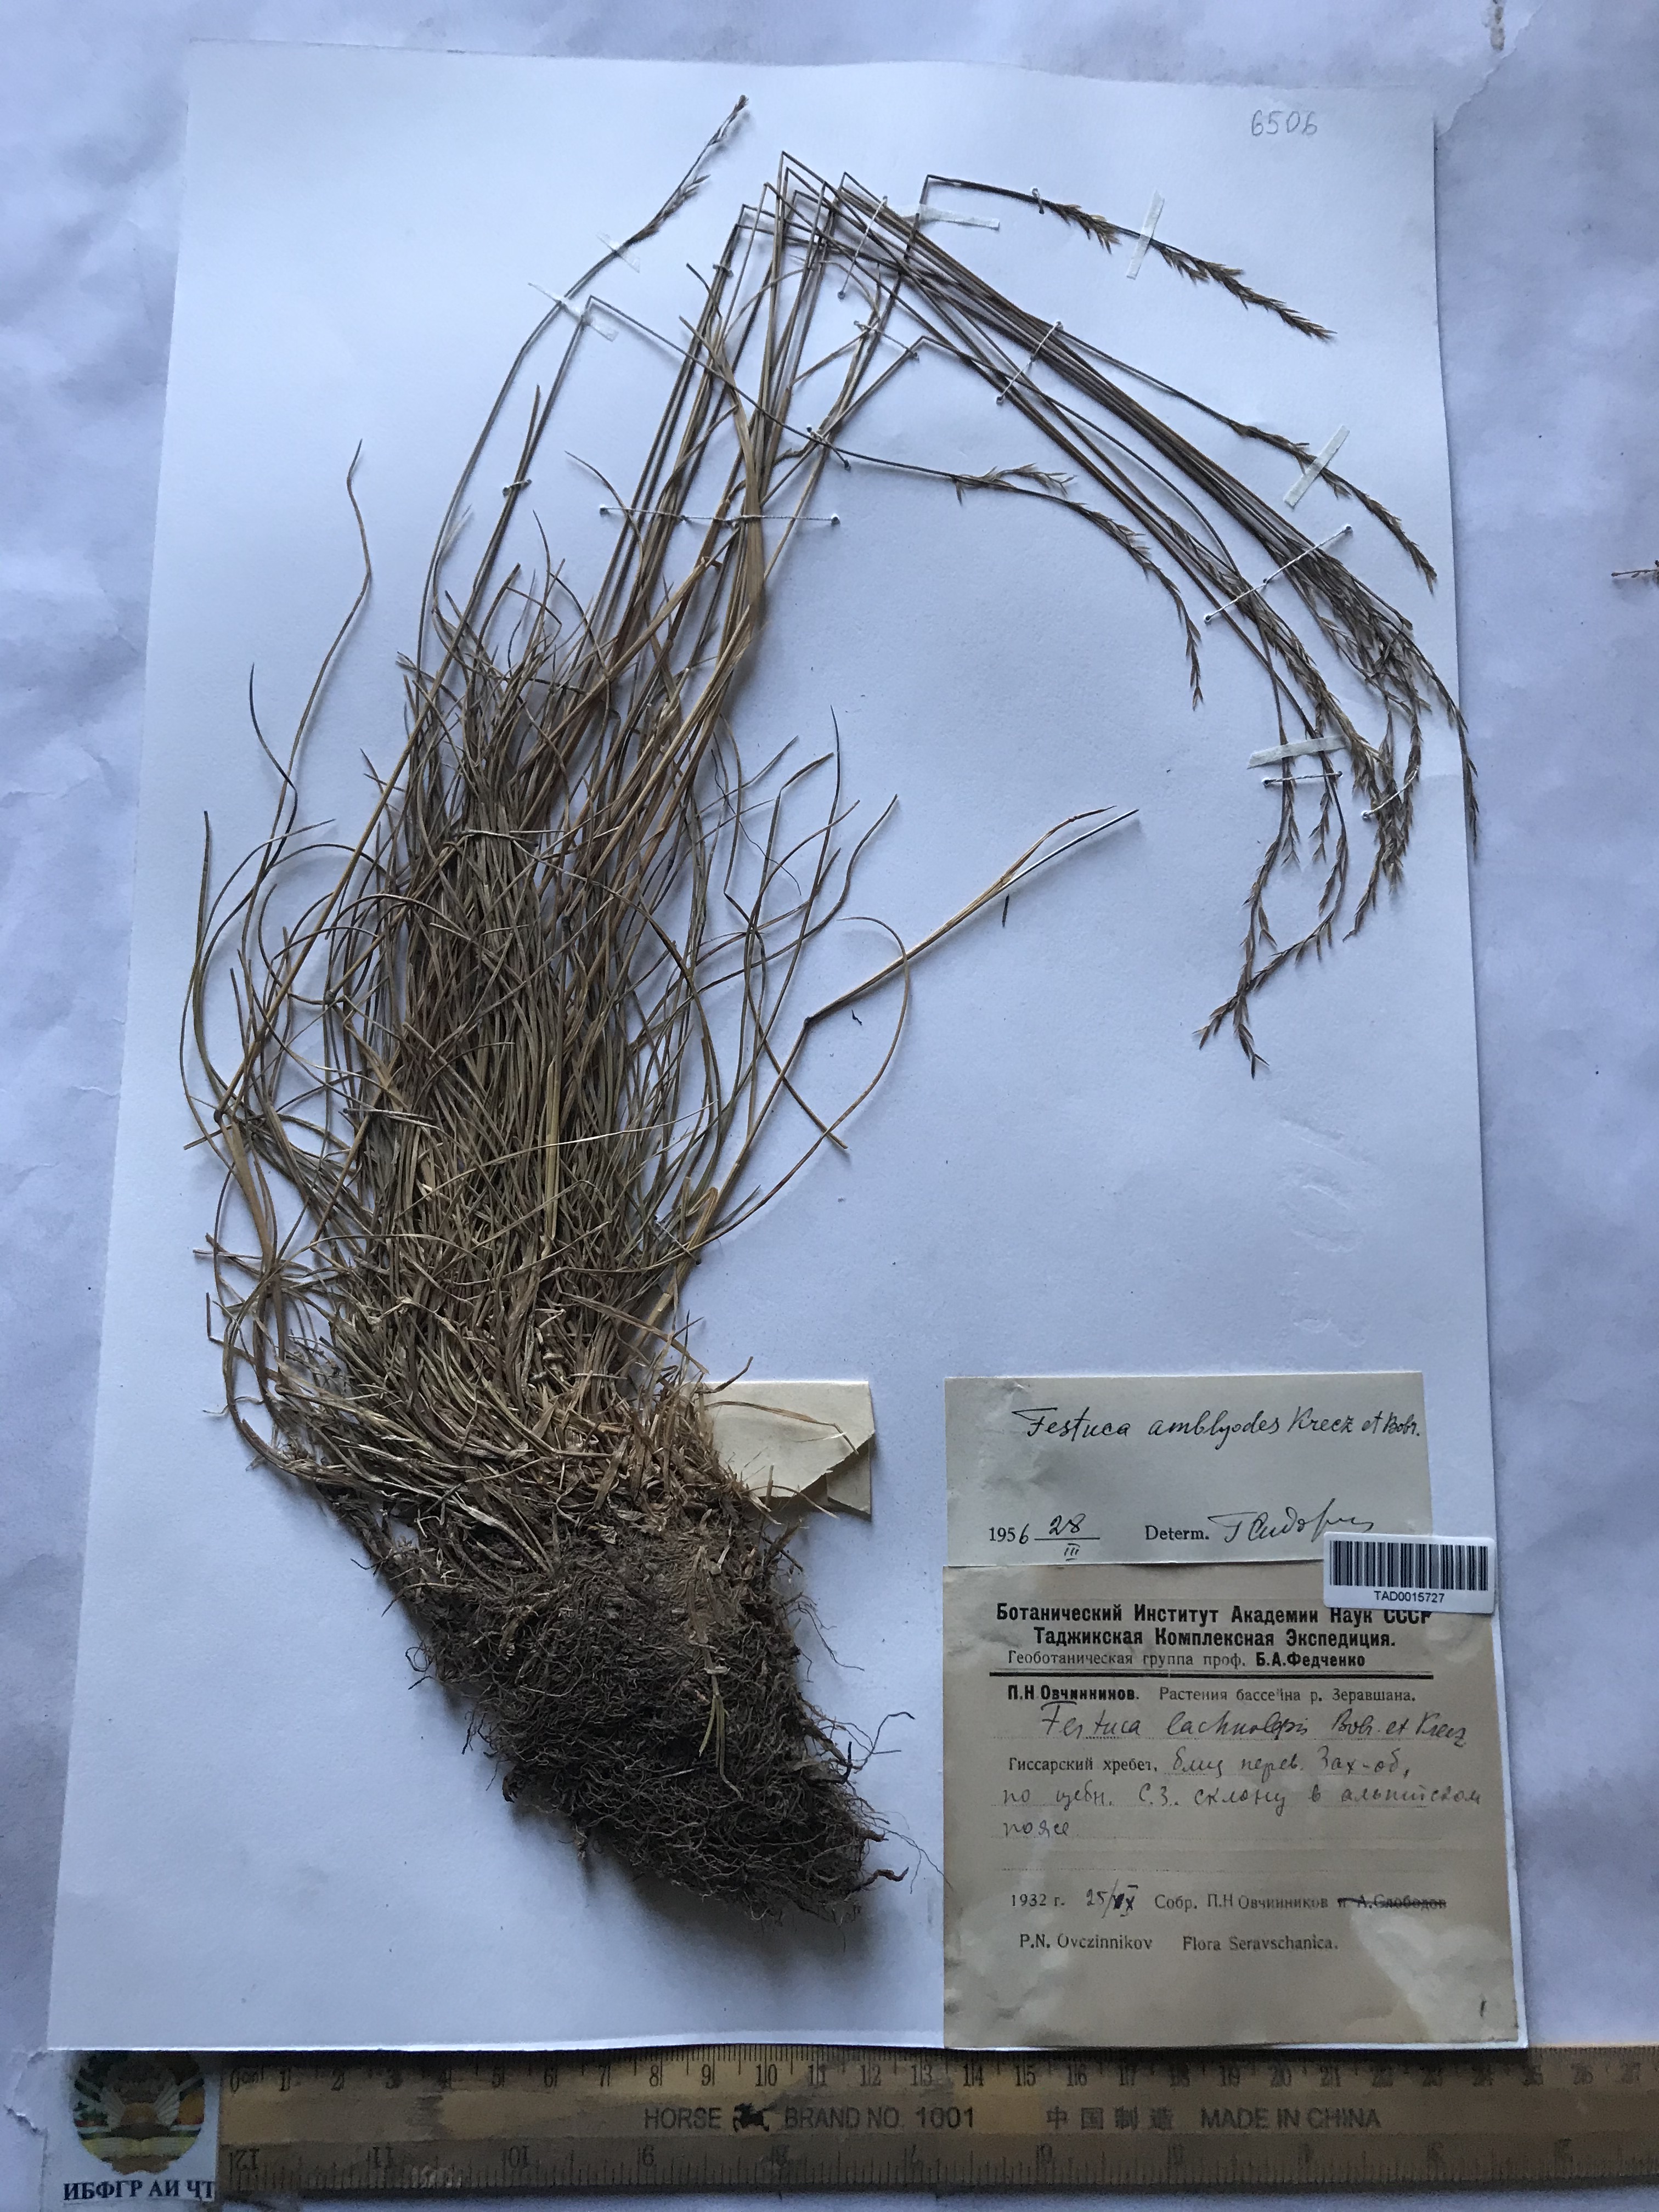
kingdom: Plantae
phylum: Tracheophyta
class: Liliopsida
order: Poales
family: Poaceae
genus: Festuca
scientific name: Festuca amblyodes
